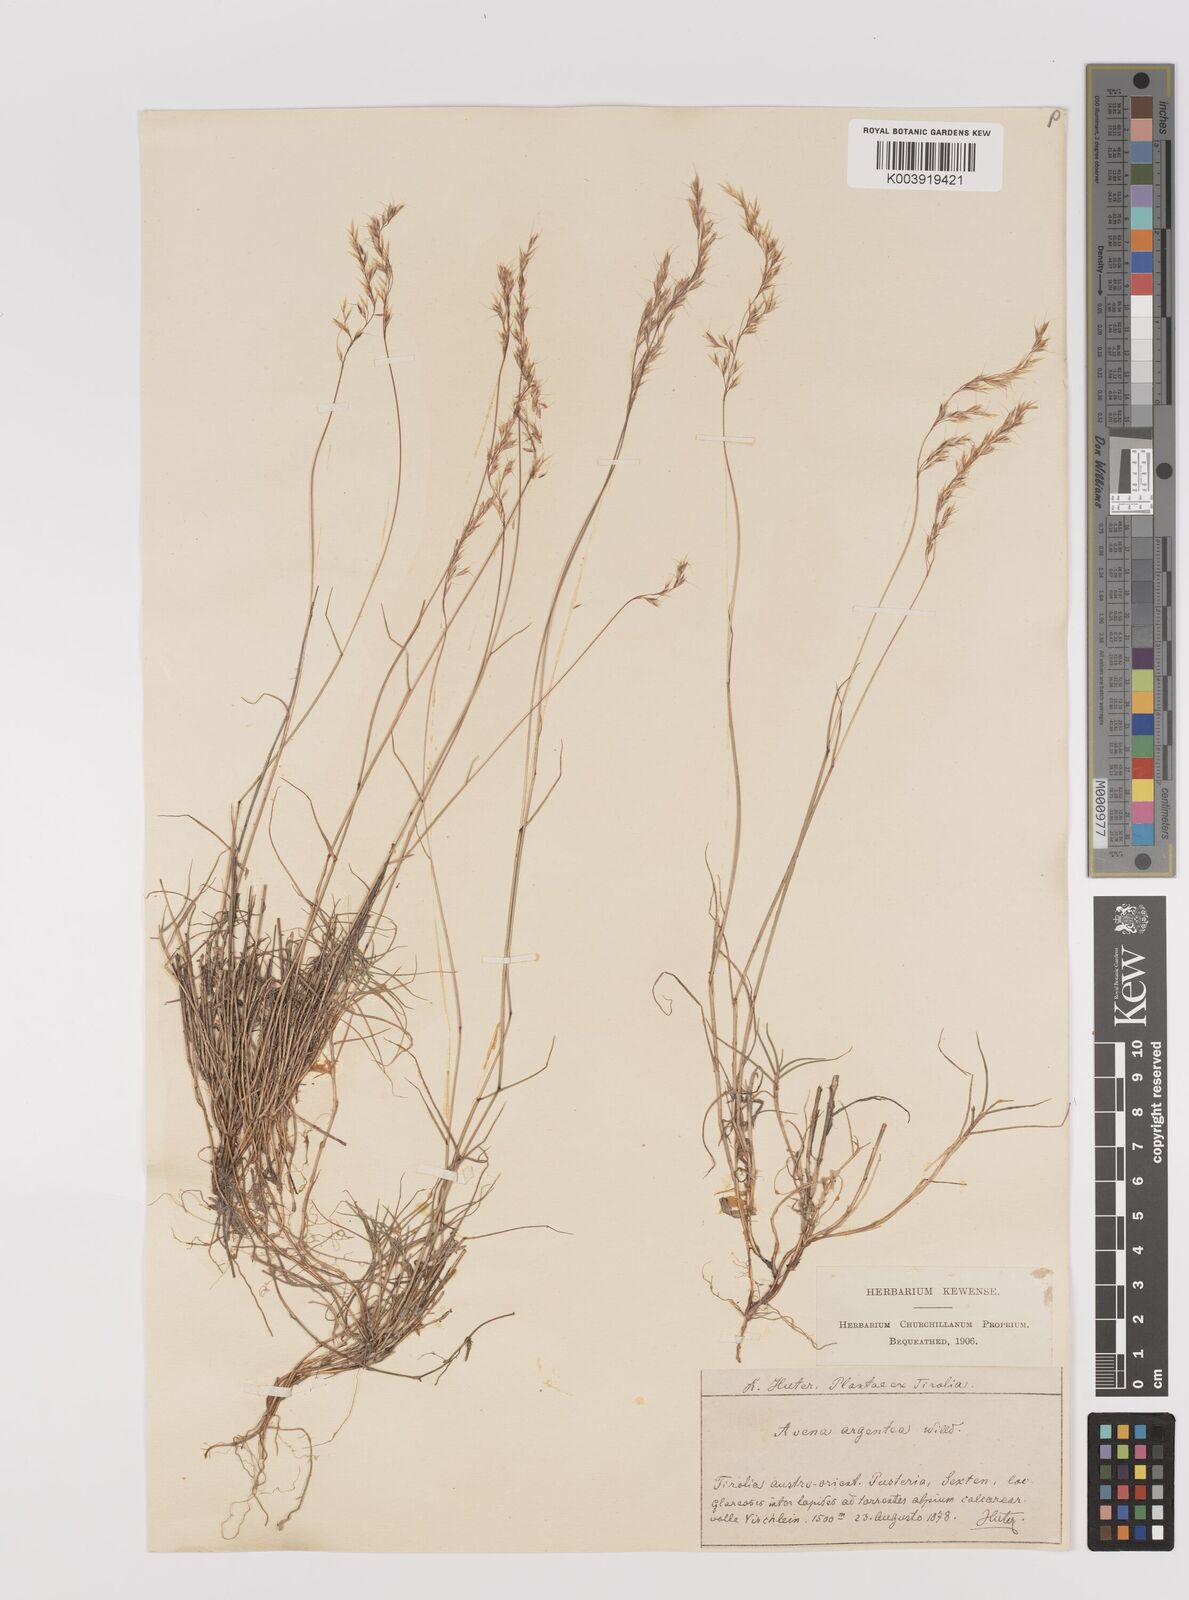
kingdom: Plantae
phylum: Tracheophyta
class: Liliopsida
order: Poales
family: Poaceae
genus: Trisetum
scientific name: Trisetum argenteum
